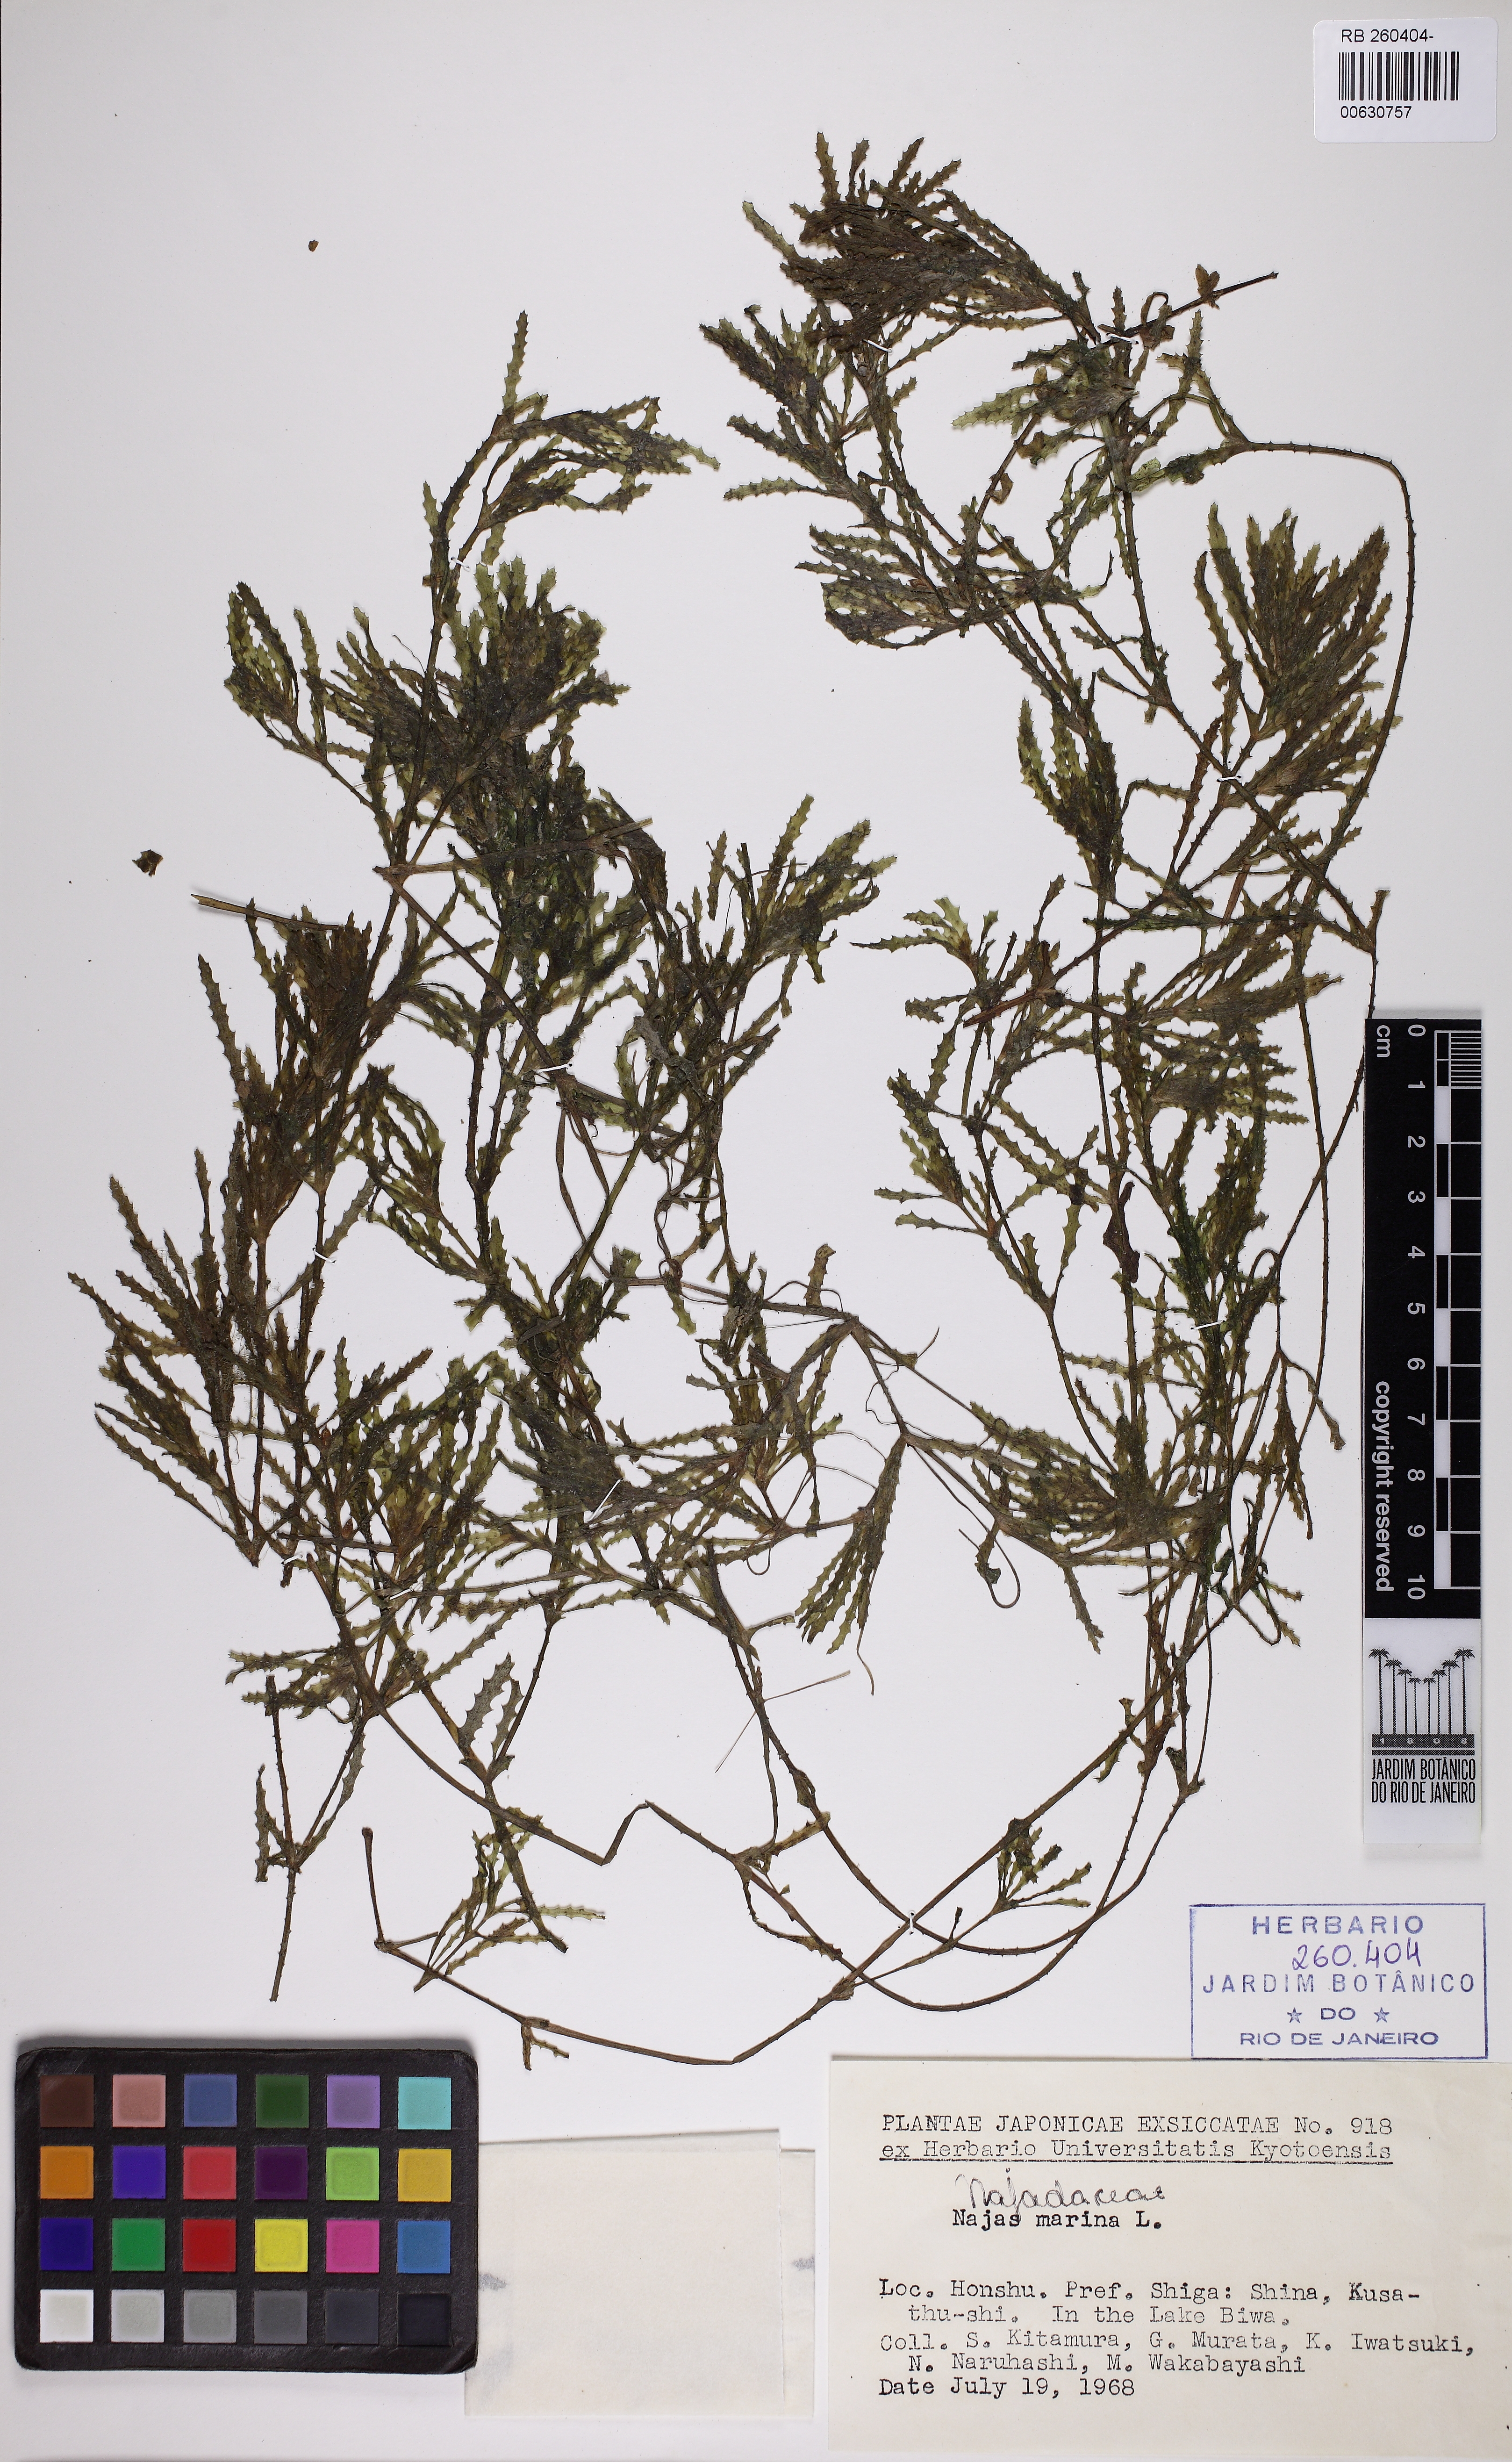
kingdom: Plantae
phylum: Tracheophyta
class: Liliopsida
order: Alismatales
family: Hydrocharitaceae
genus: Najas
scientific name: Najas marina
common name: Holly-leaved naiad
